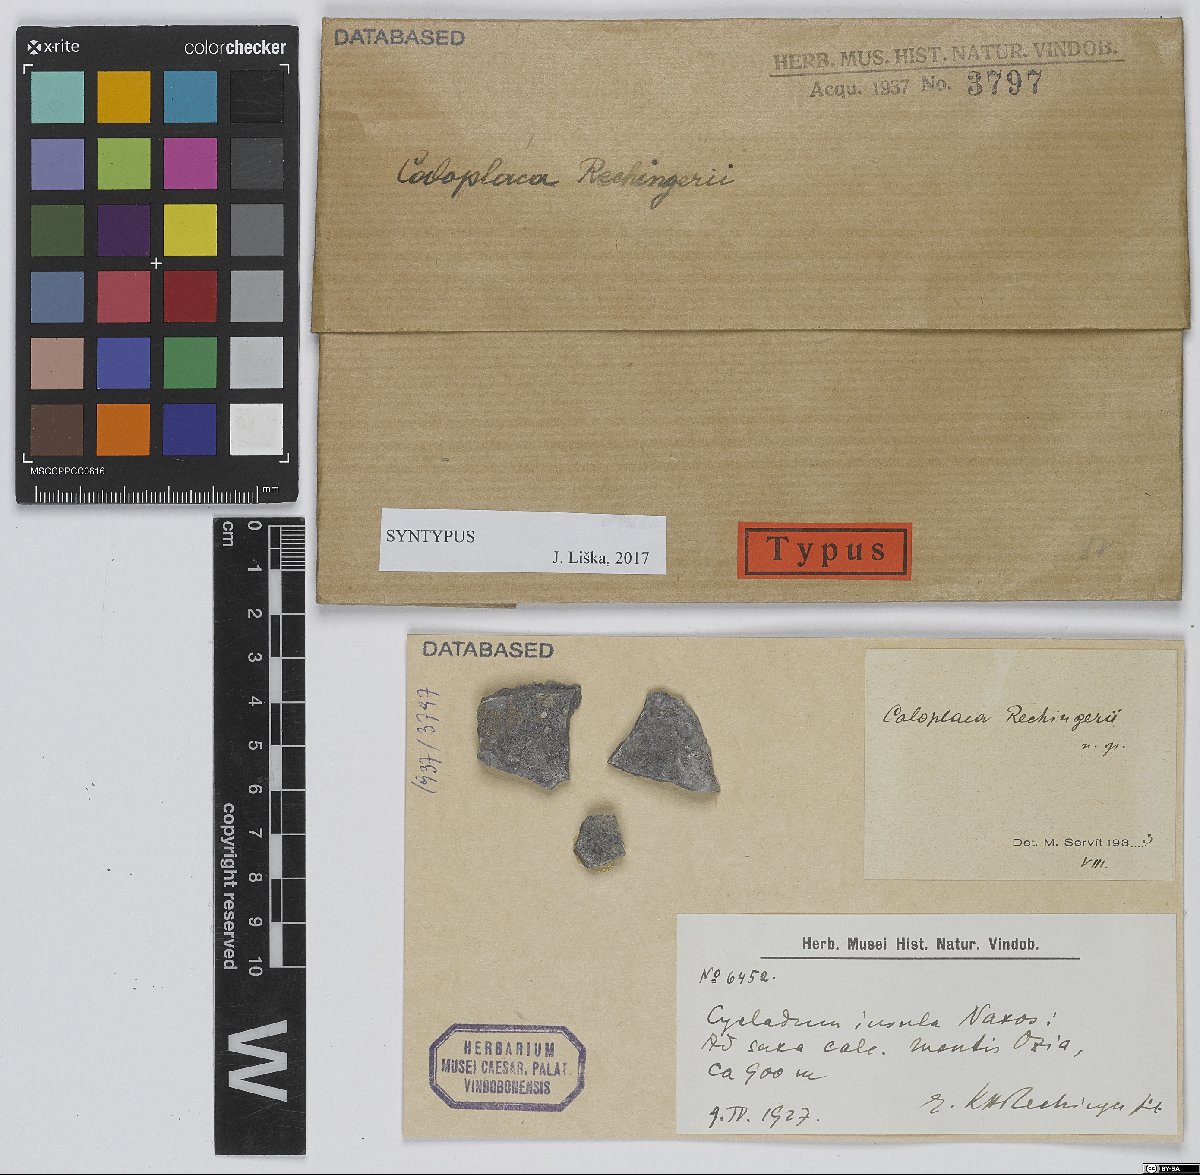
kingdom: Fungi
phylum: Ascomycota
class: Lecanoromycetes
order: Teloschistales
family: Teloschistaceae
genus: Caloplaca
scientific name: Caloplaca
